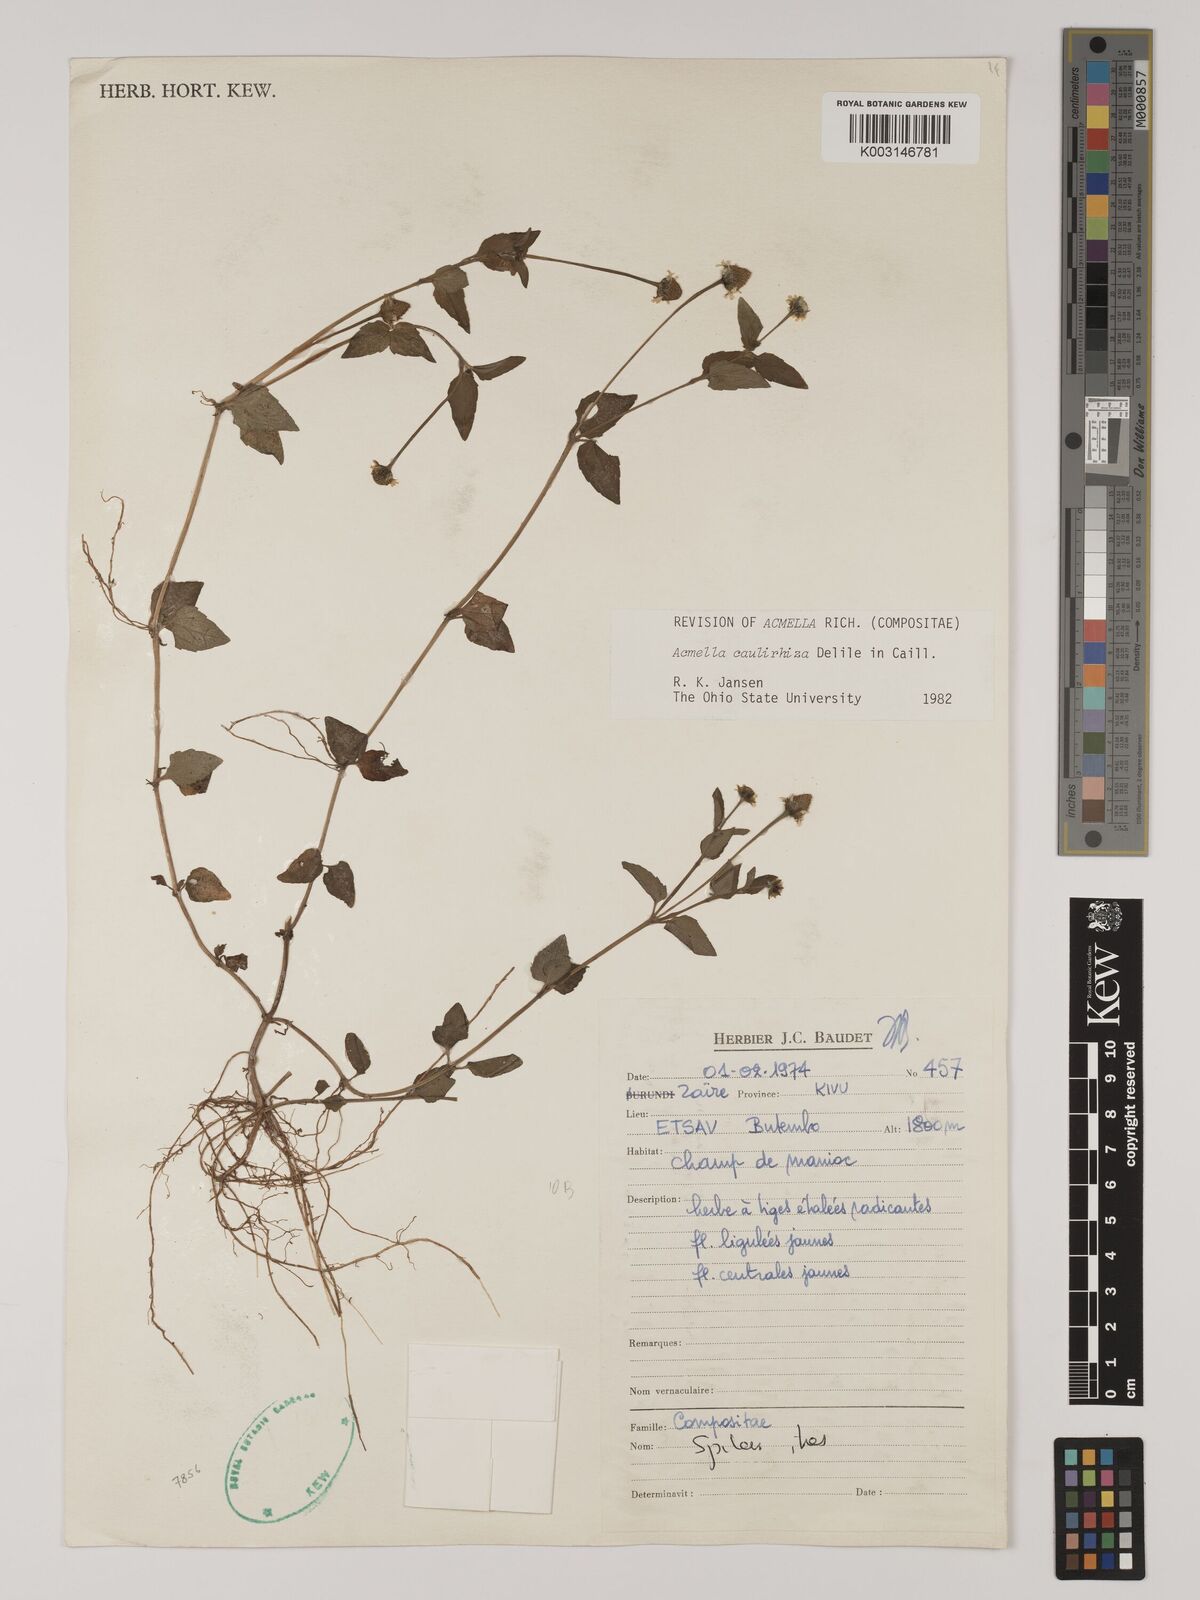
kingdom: Plantae
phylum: Tracheophyta
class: Magnoliopsida
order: Asterales
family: Asteraceae
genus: Acmella
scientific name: Acmella caulirhiza
